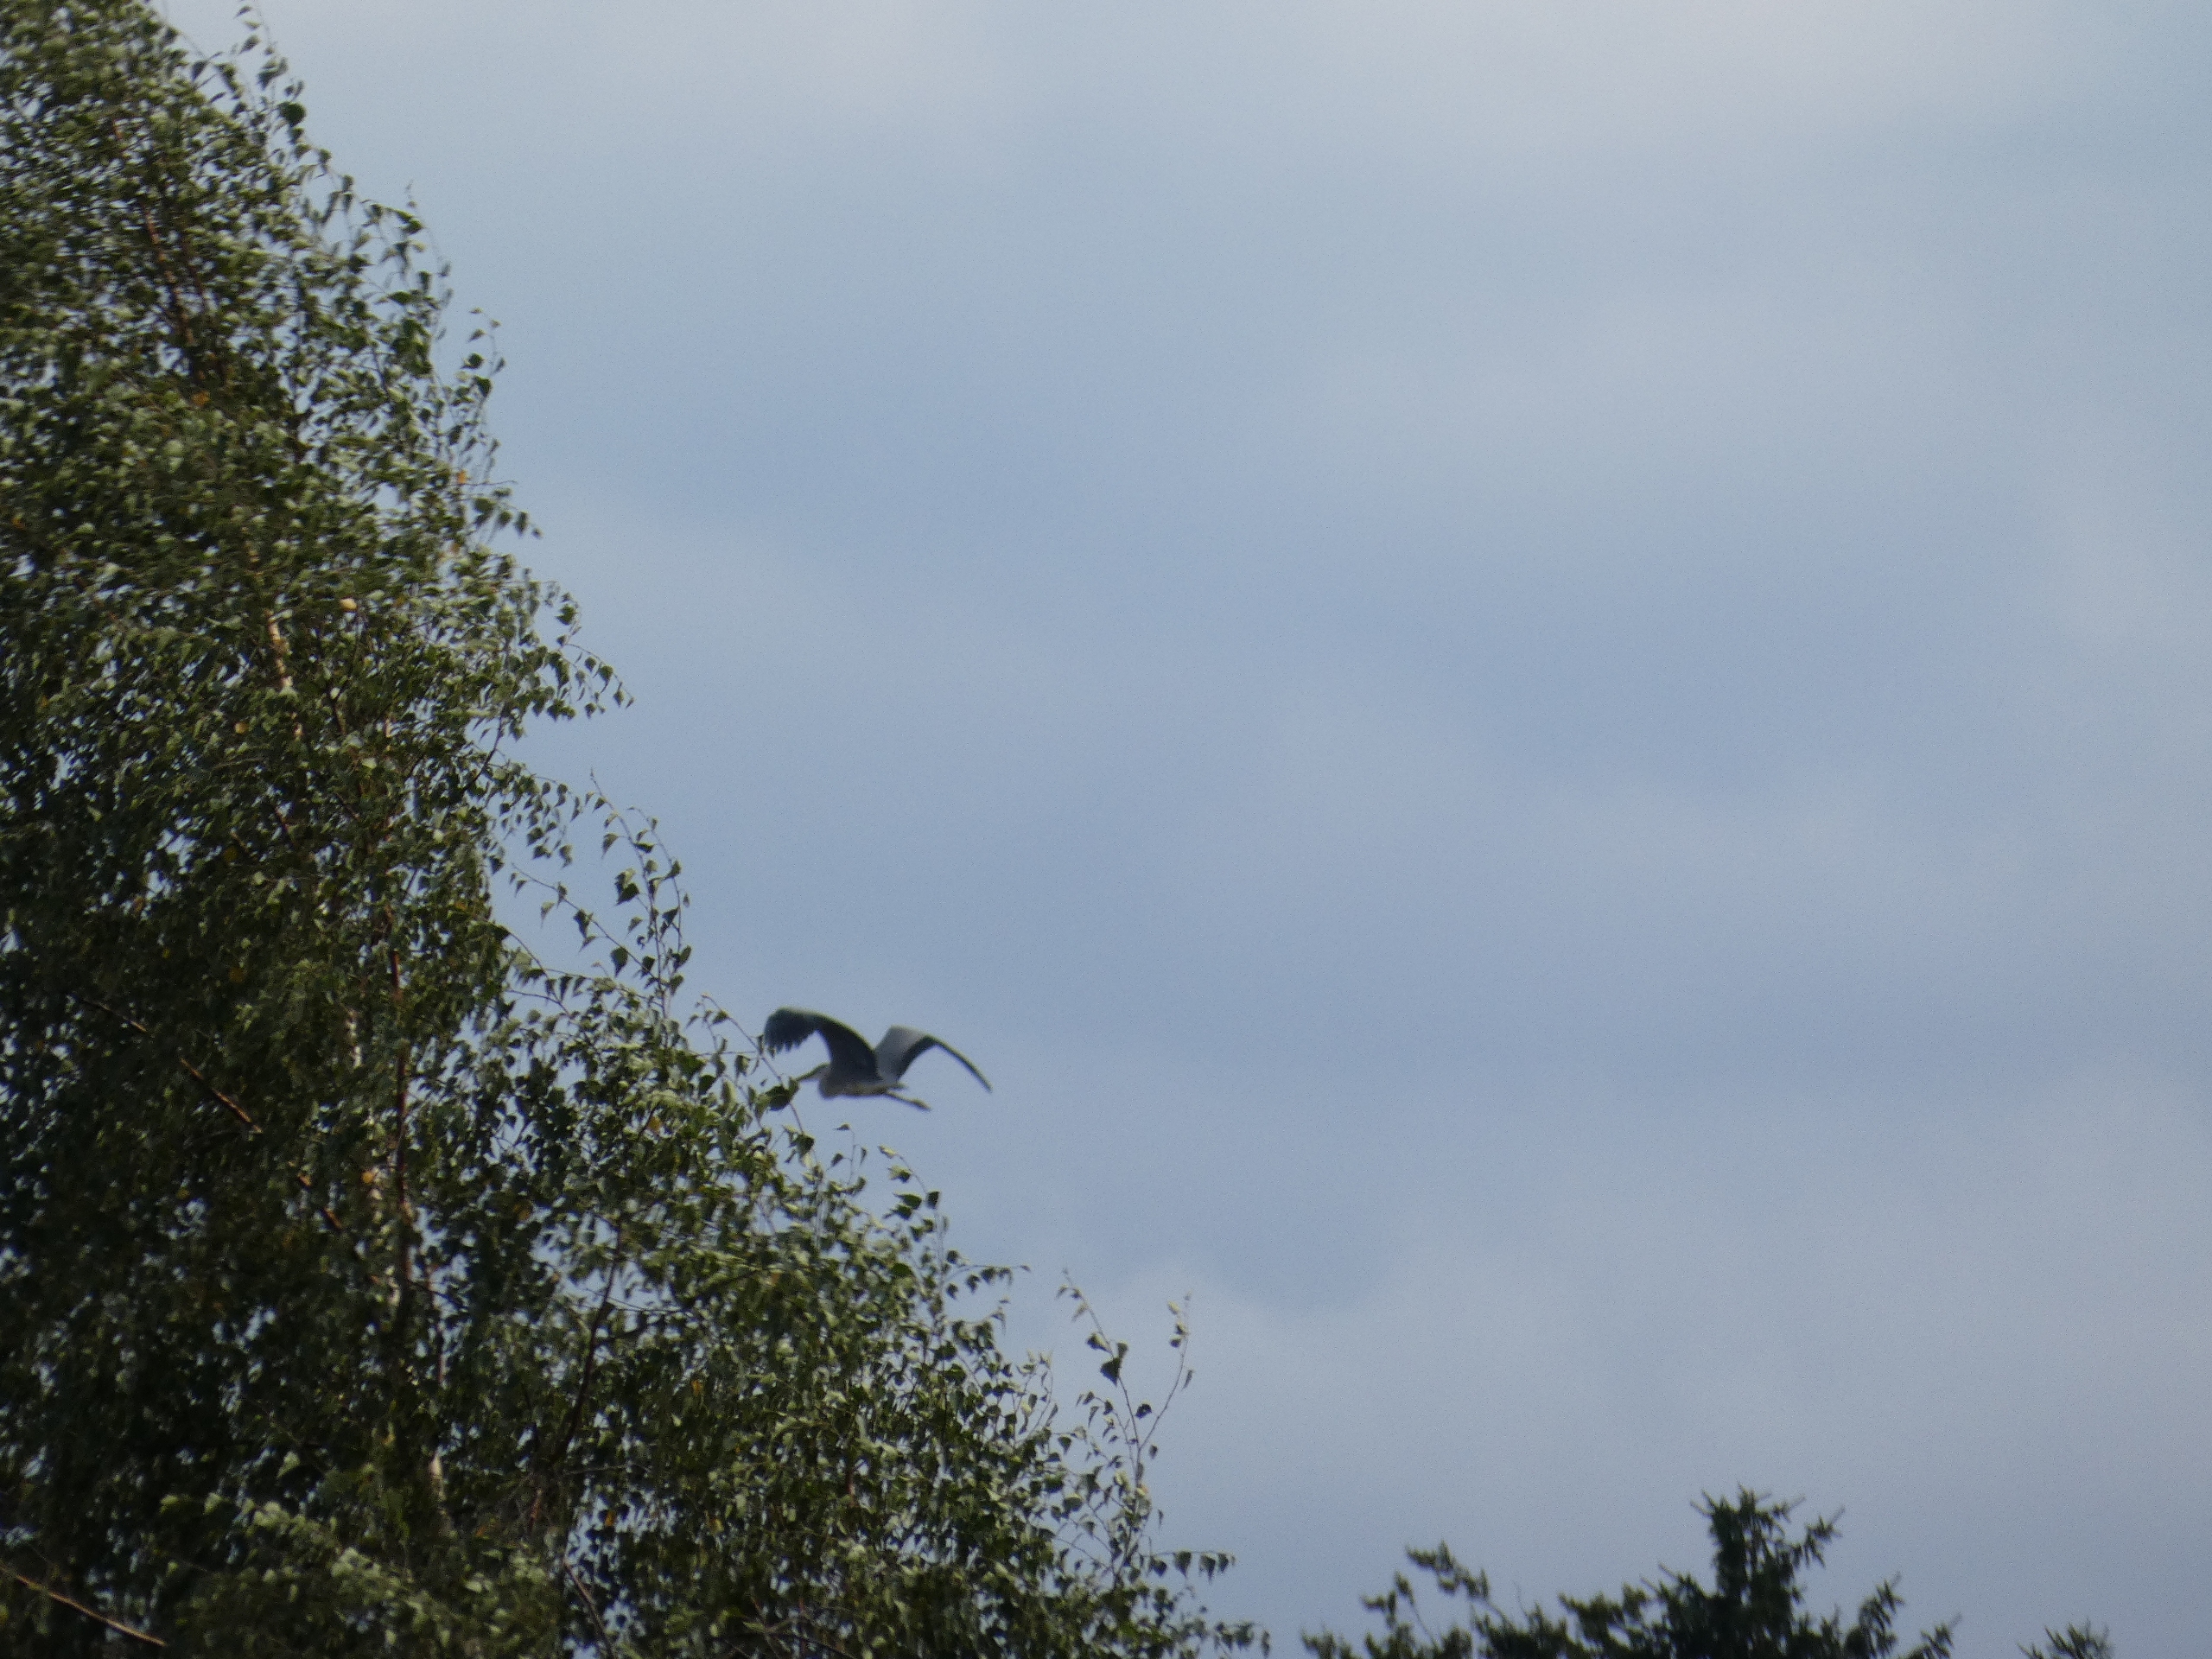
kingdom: Animalia
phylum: Chordata
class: Aves
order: Pelecaniformes
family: Ardeidae
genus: Ardea
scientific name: Ardea cinerea
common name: Fiskehejre
